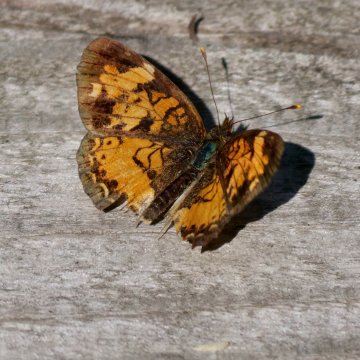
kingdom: Animalia
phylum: Arthropoda
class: Insecta
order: Lepidoptera
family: Nymphalidae
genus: Phyciodes
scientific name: Phyciodes tharos
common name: Northern Crescent
